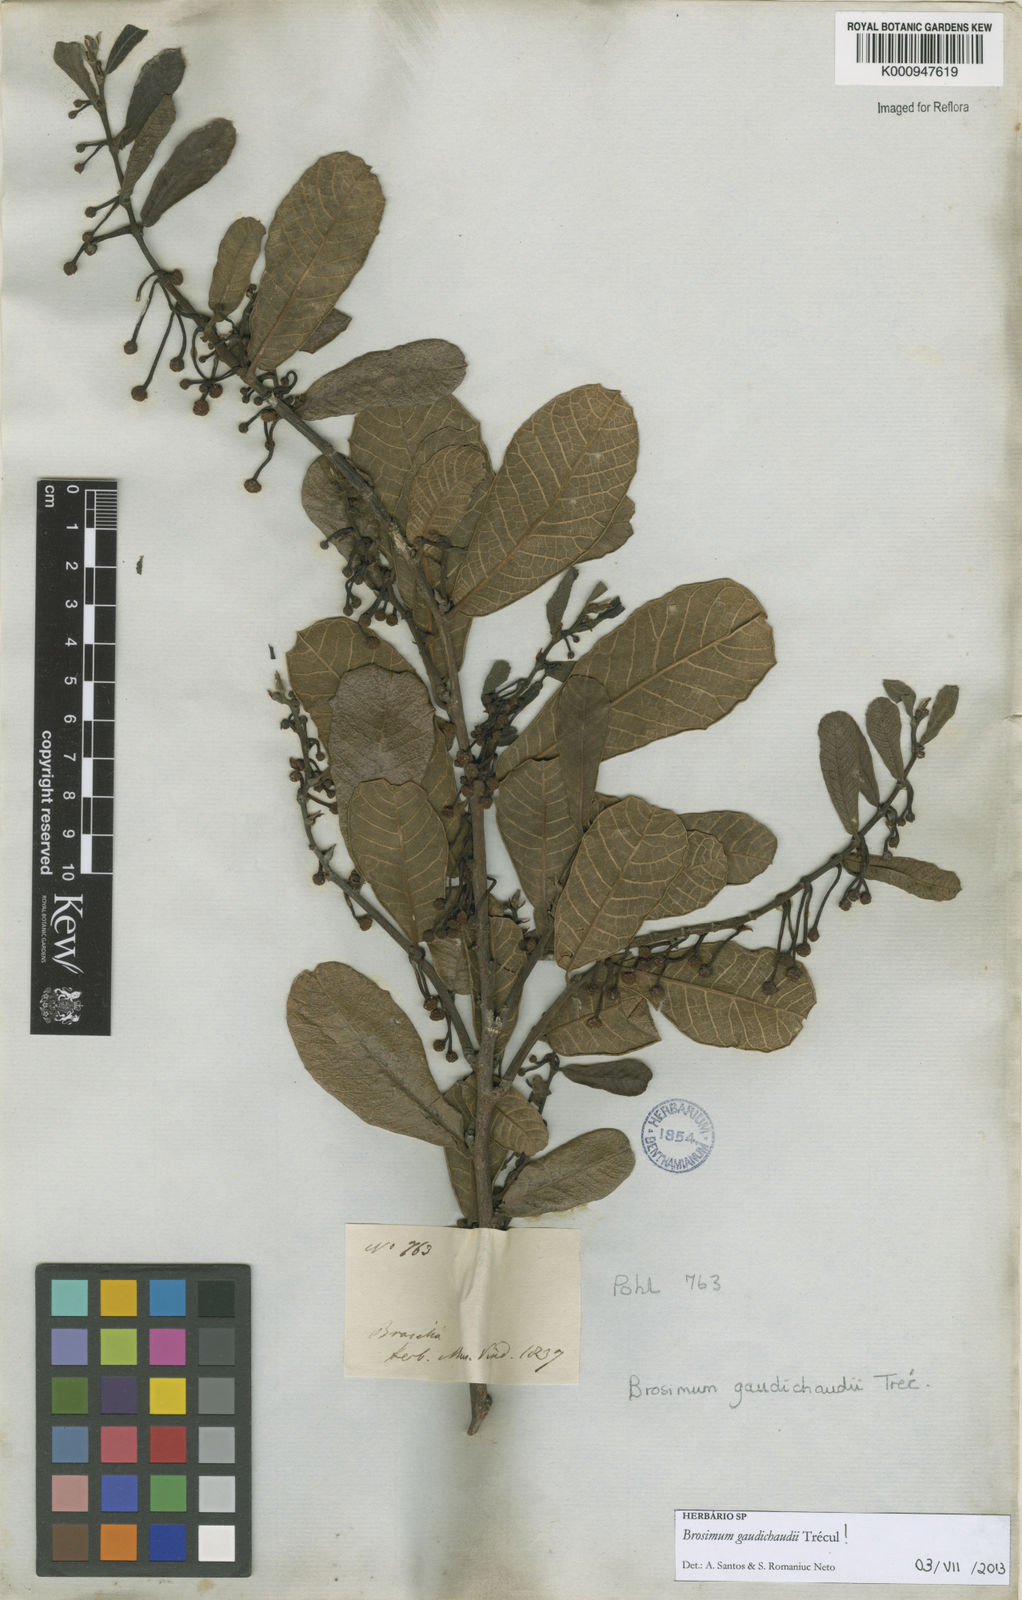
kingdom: Plantae
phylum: Tracheophyta
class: Magnoliopsida
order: Rosales
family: Moraceae
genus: Brosimum
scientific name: Brosimum
